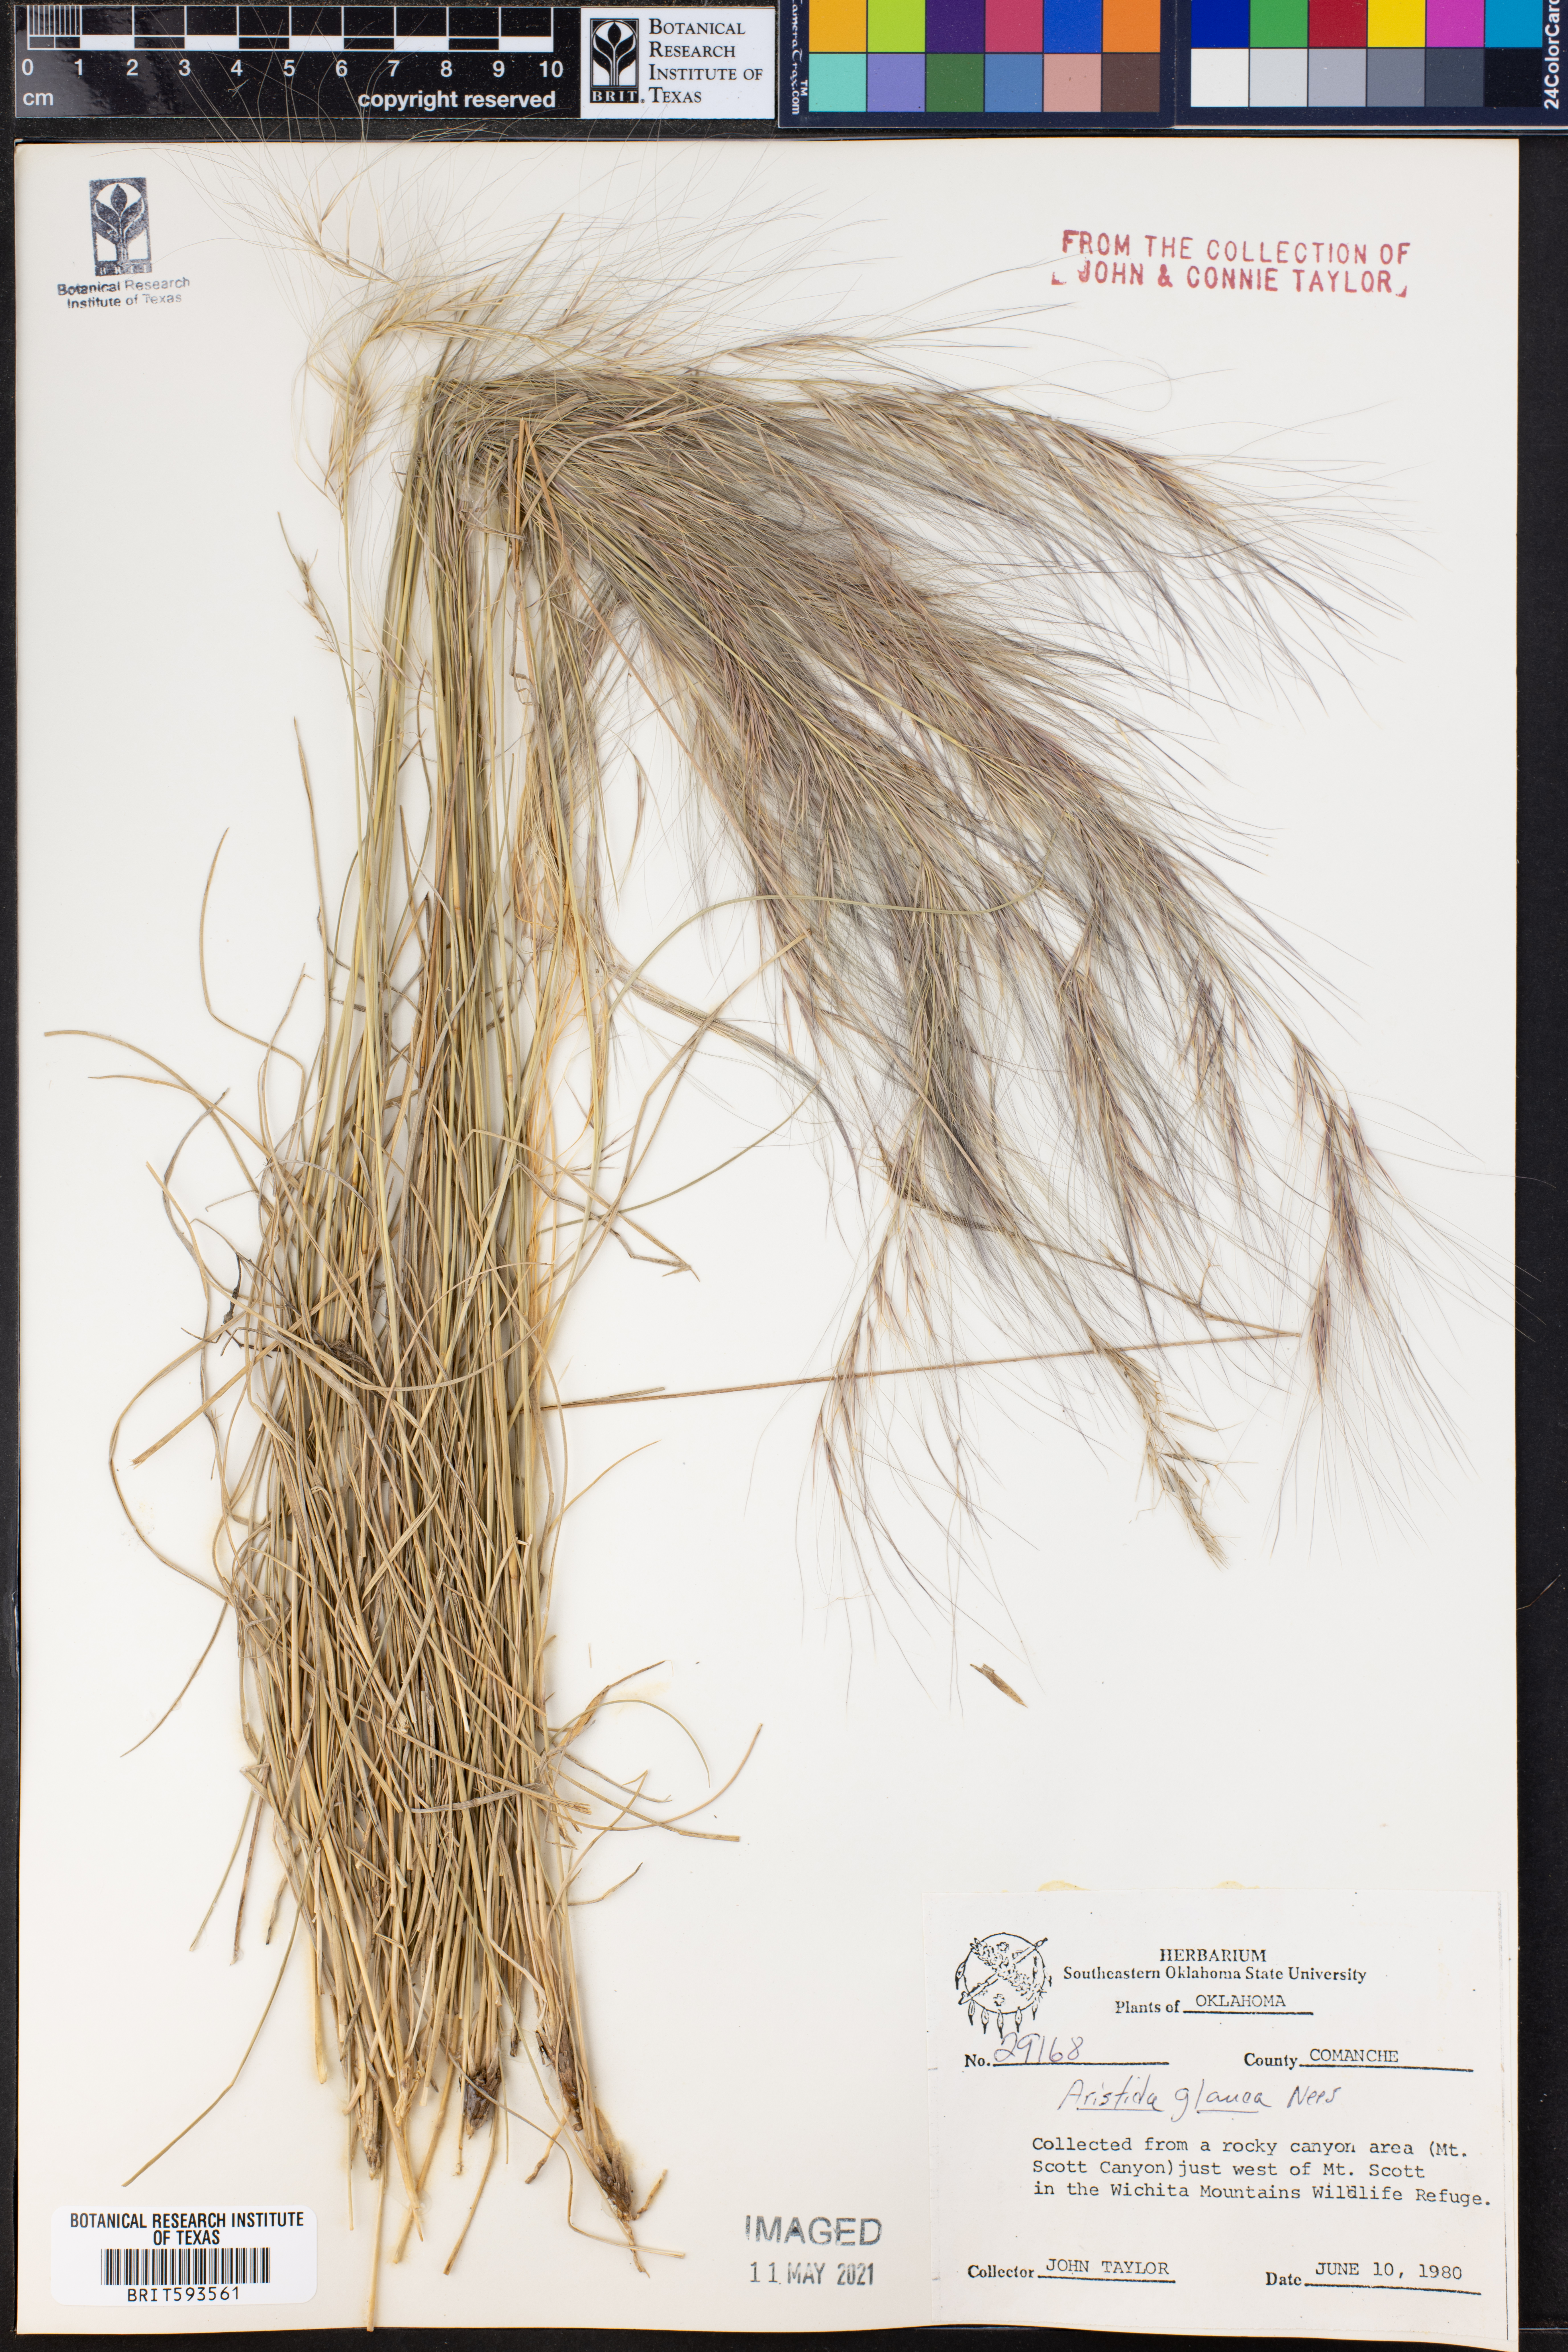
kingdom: Plantae
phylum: Tracheophyta
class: Liliopsida
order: Poales
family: Poaceae
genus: Aristida
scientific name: Aristida glauca
